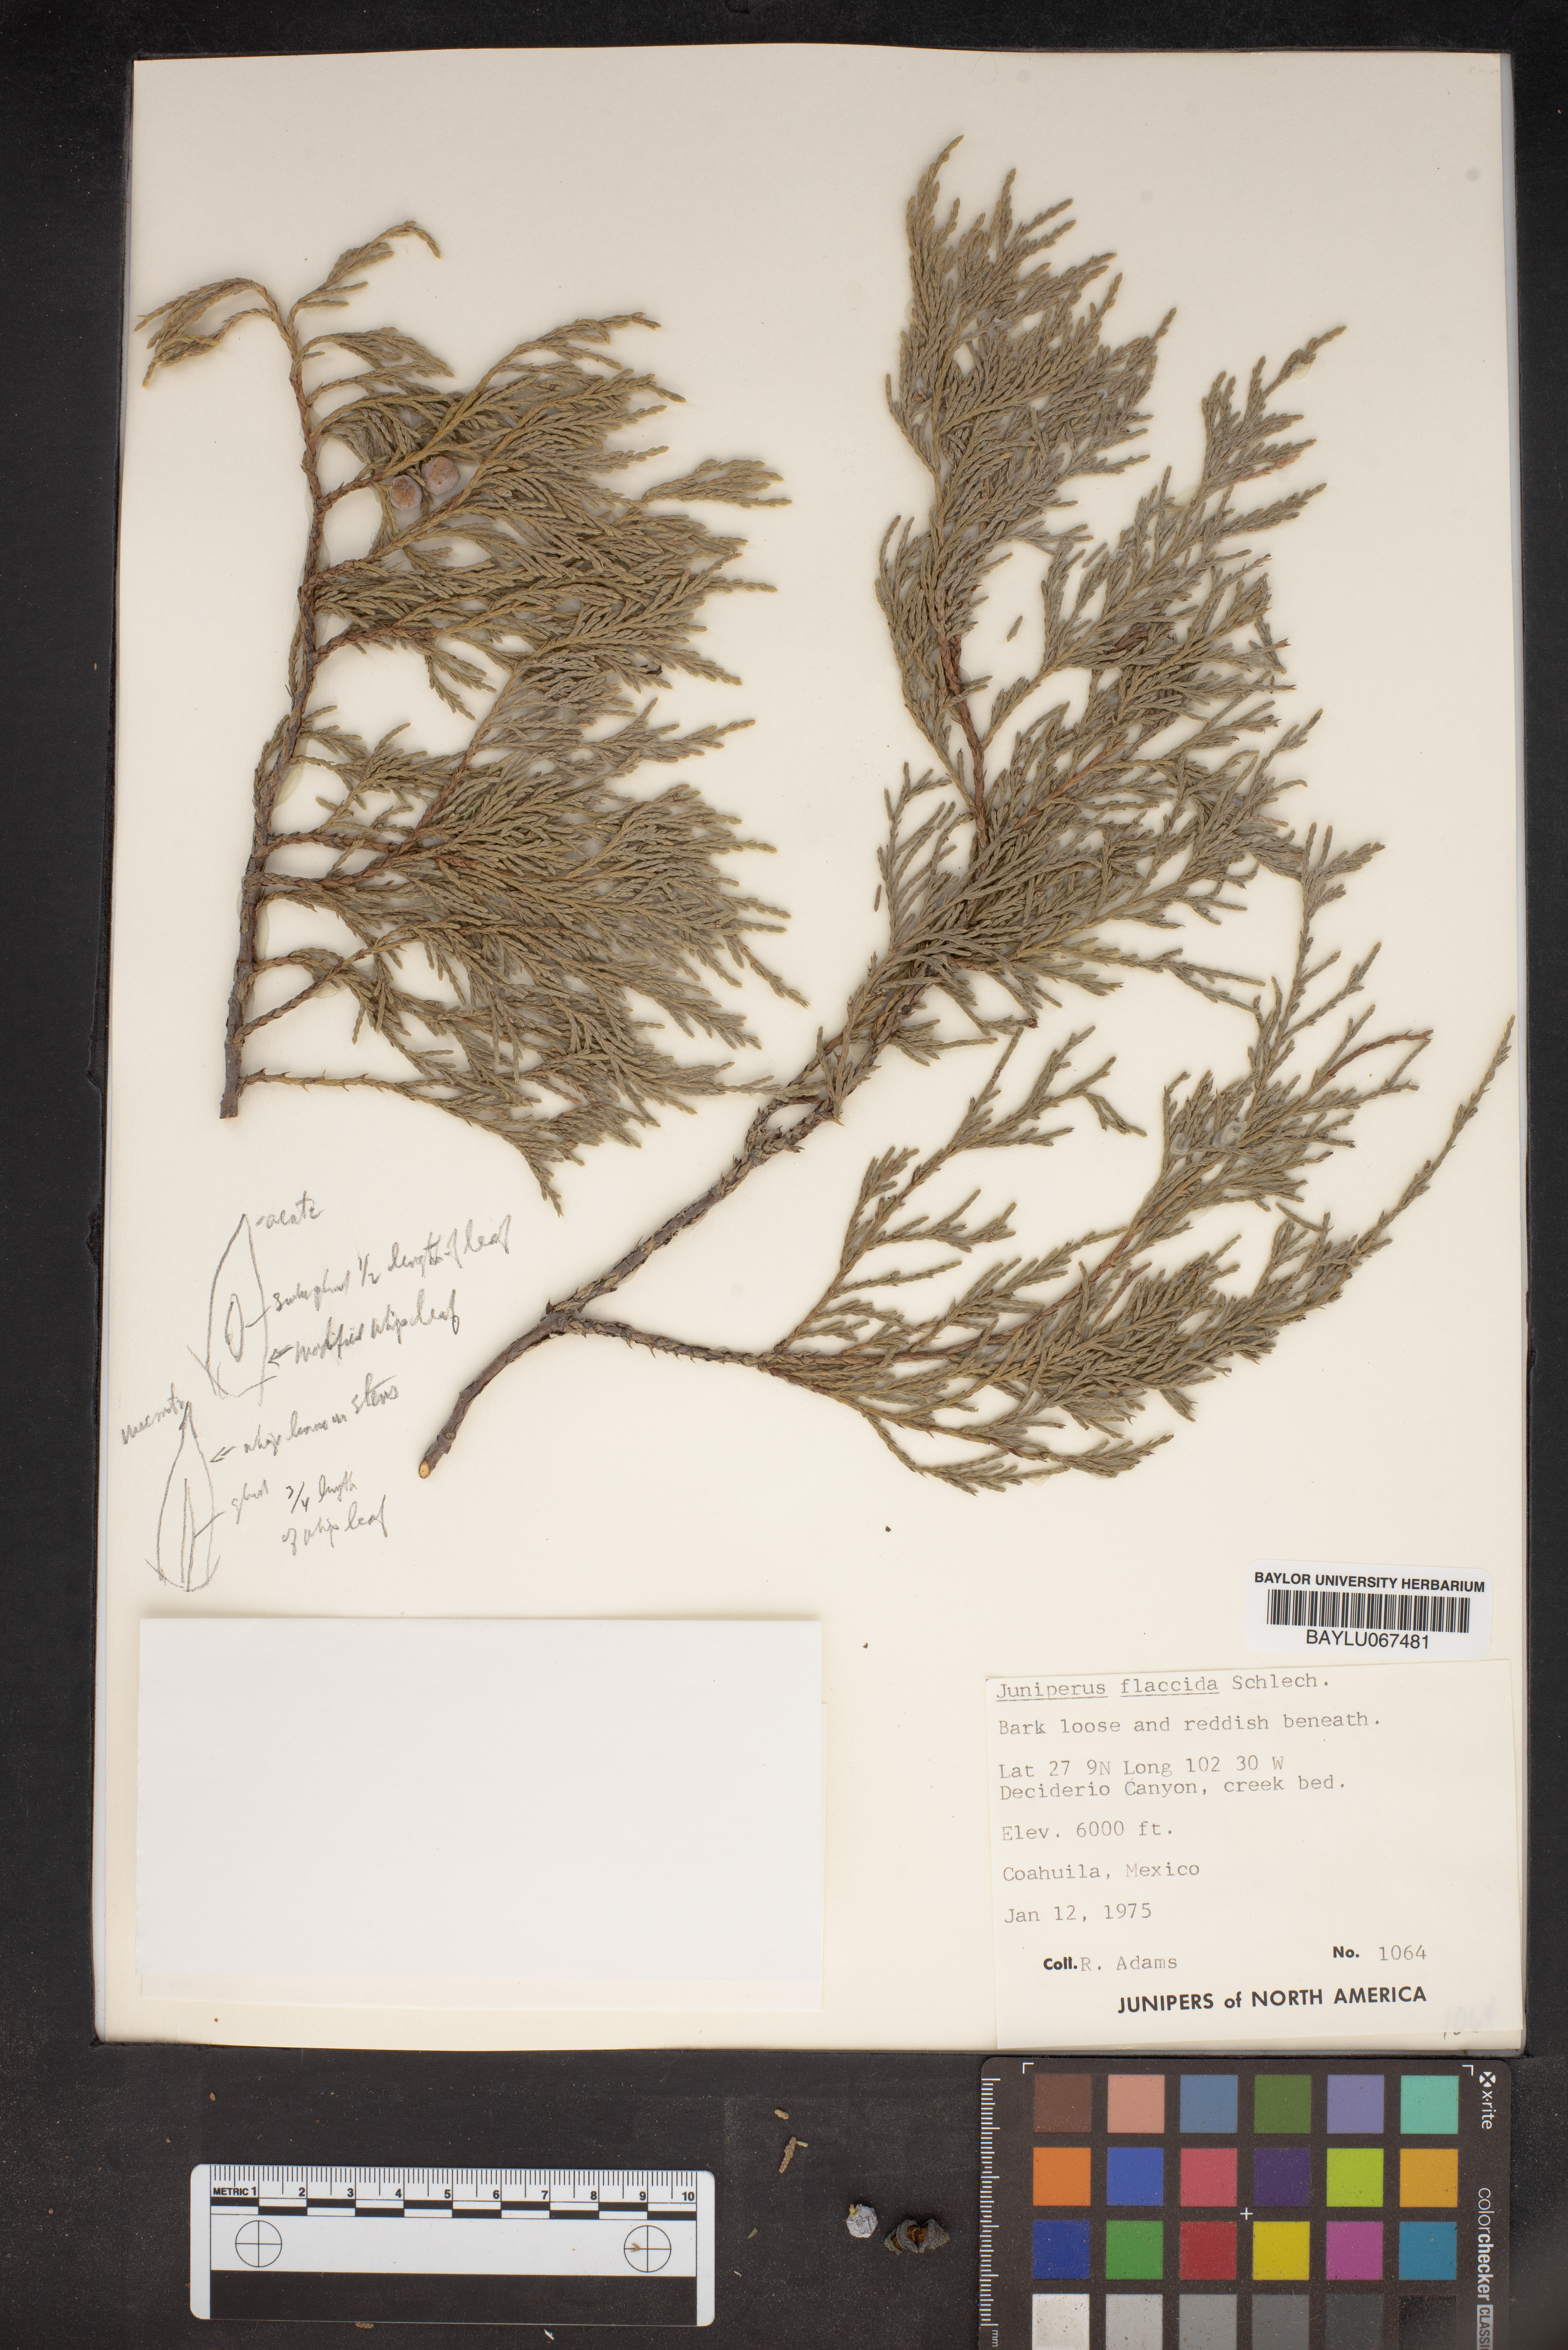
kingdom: Plantae
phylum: Tracheophyta
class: Pinopsida
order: Pinales
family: Cupressaceae
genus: Juniperus
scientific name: Juniperus flaccida
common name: Drooping juniper
